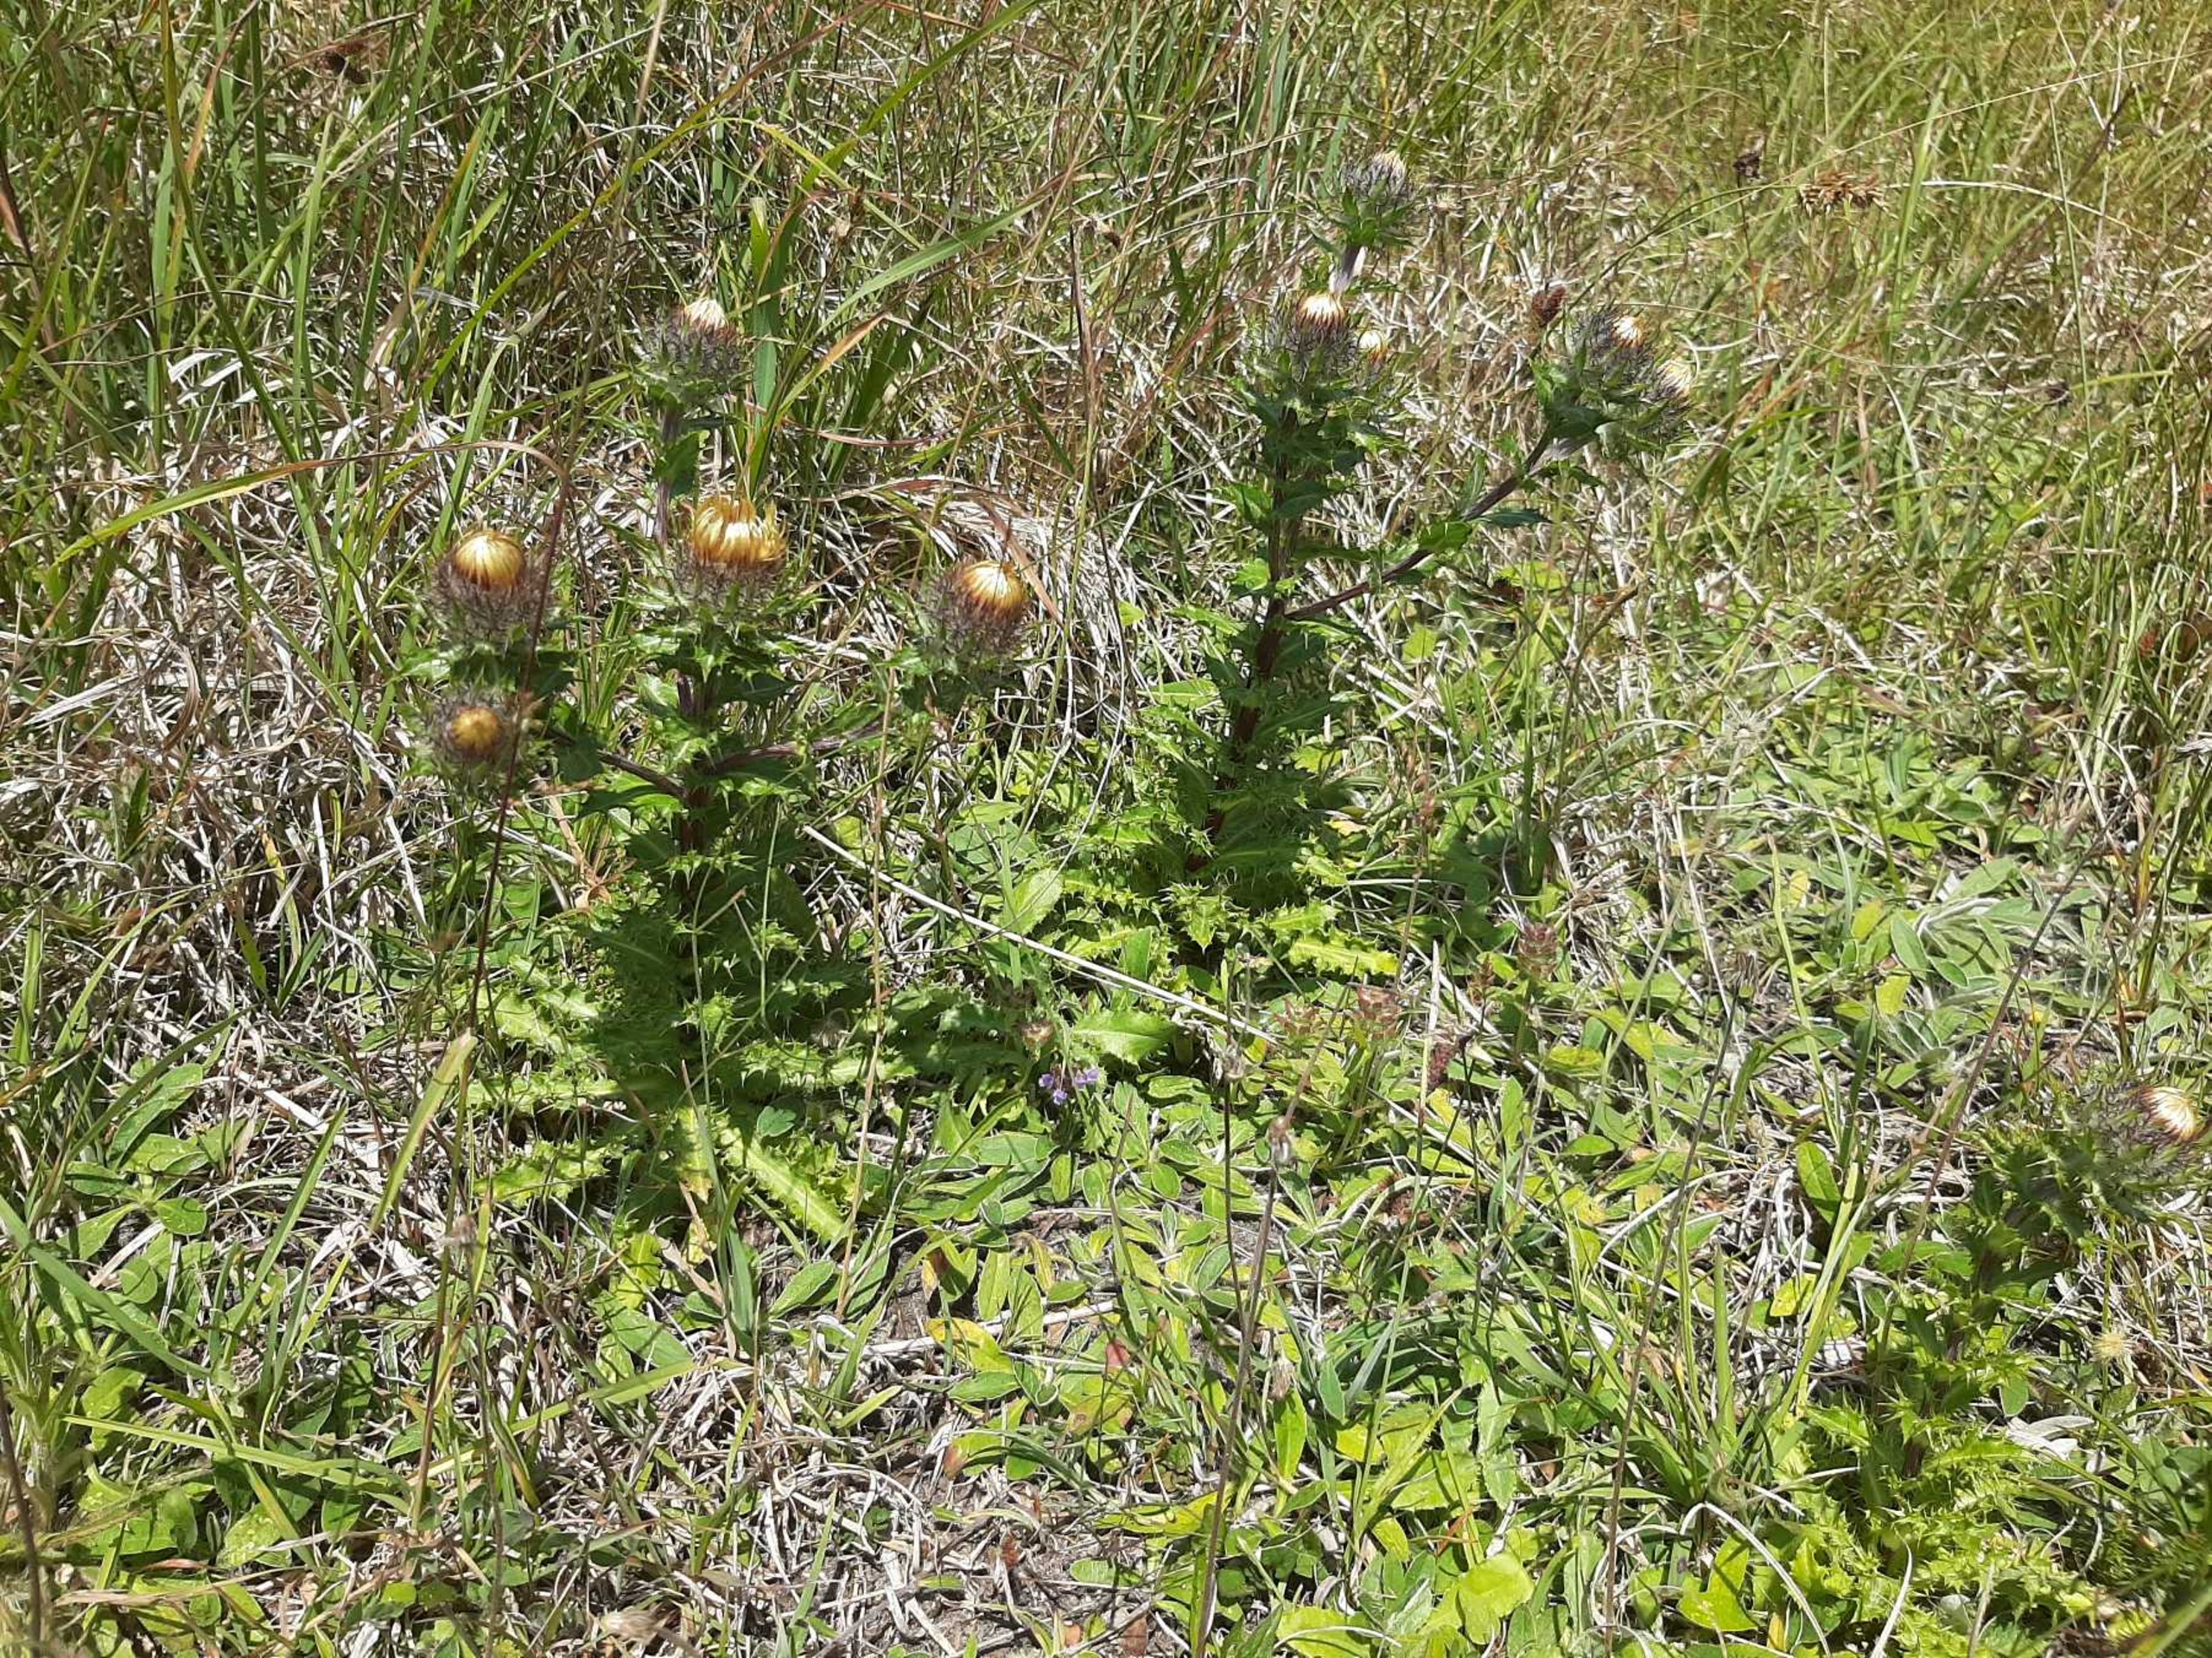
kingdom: Plantae
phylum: Tracheophyta
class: Magnoliopsida
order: Asterales
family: Asteraceae
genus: Carlina
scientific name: Carlina vulgaris
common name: Bakketidsel
